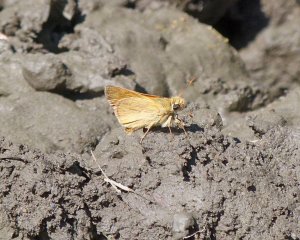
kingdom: Animalia
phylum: Arthropoda
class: Insecta
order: Lepidoptera
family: Hesperiidae
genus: Ochlodes
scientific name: Ochlodes sylvanoides
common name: Woodland Skipper
